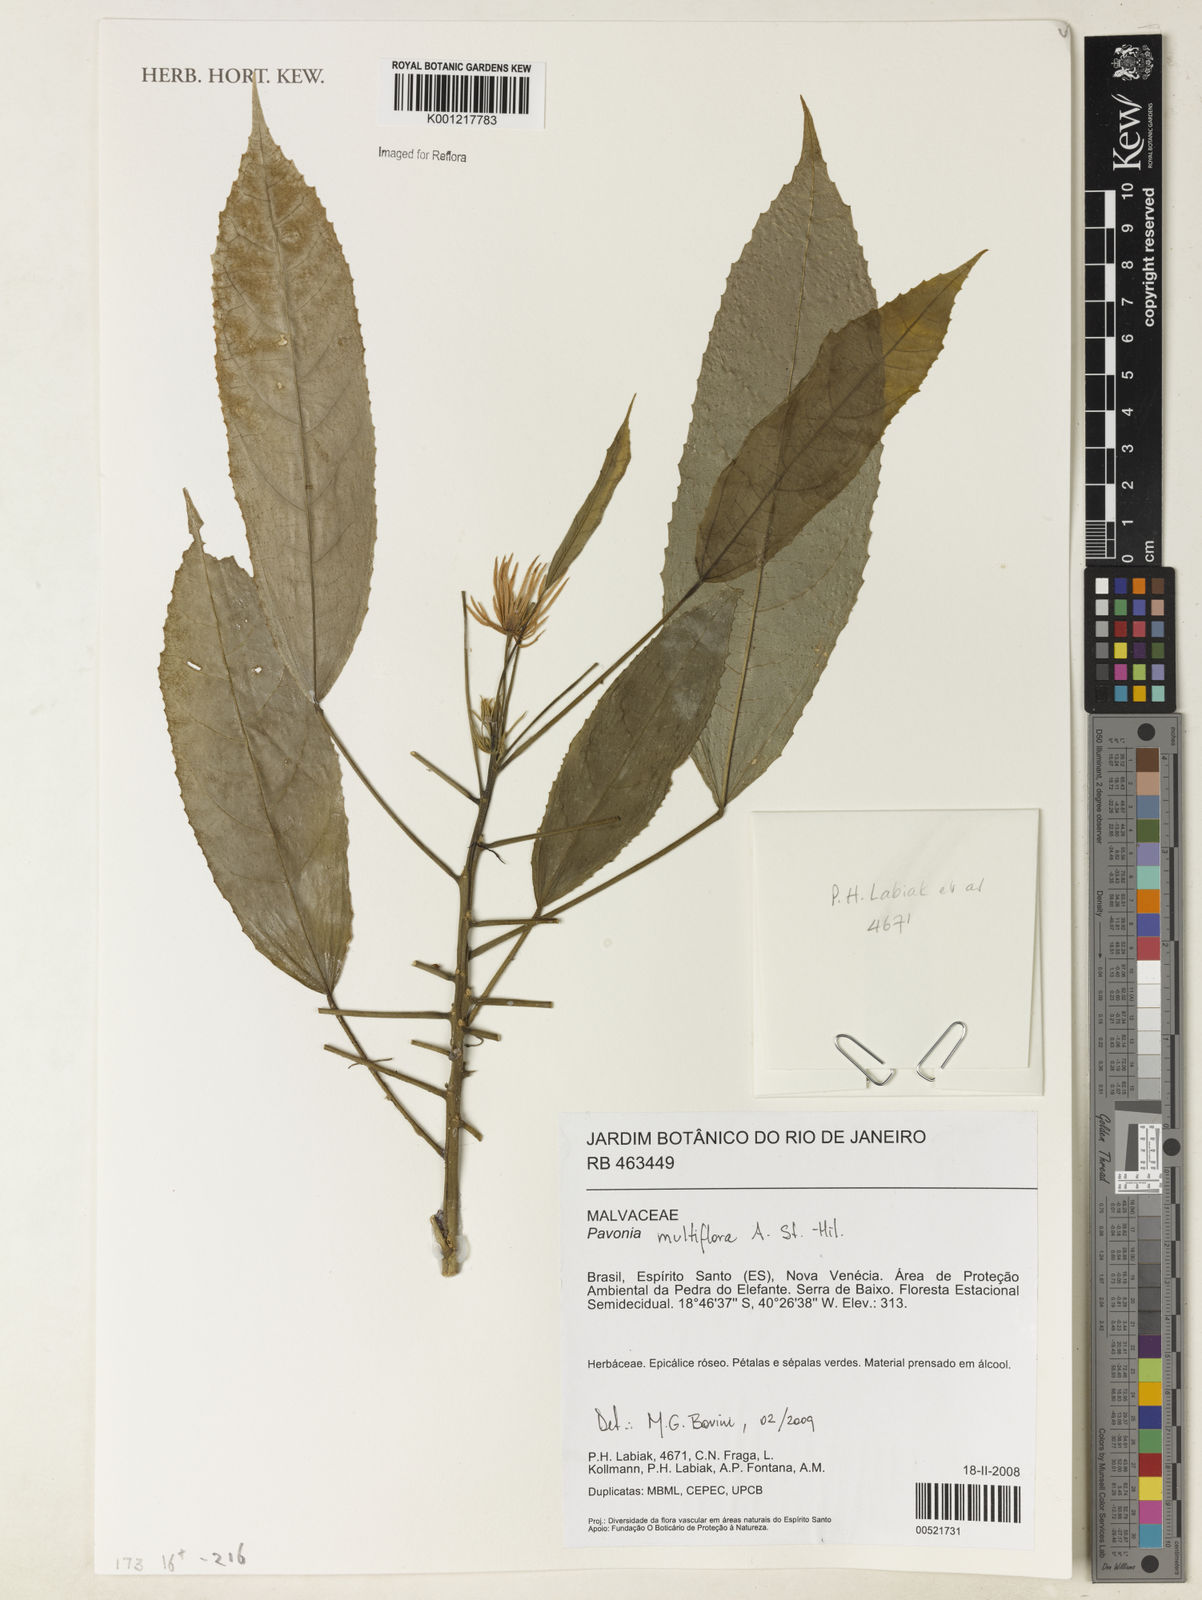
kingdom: Plantae
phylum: Tracheophyta
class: Magnoliopsida
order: Malvales
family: Malvaceae
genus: Pavonia
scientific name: Pavonia multiflora
